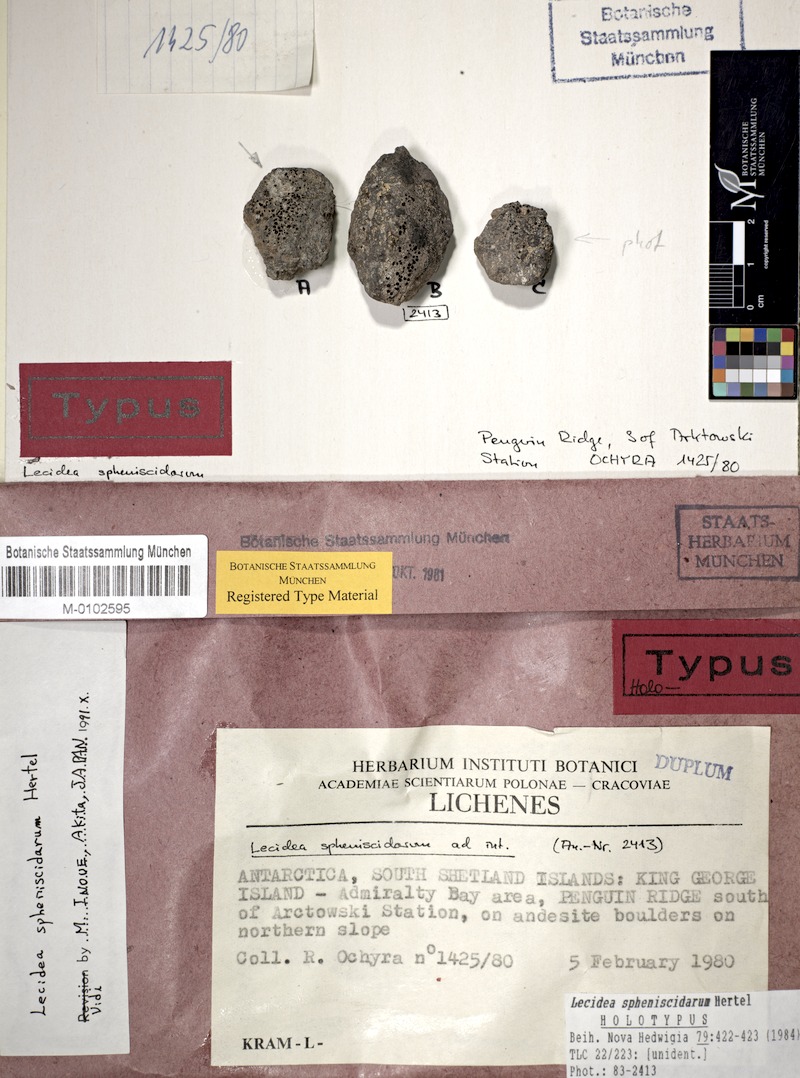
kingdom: Fungi
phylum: Ascomycota
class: Lecanoromycetes
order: Lecideales
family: Lecideaceae
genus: Lecidea
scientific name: Lecidea spheniscidarum
